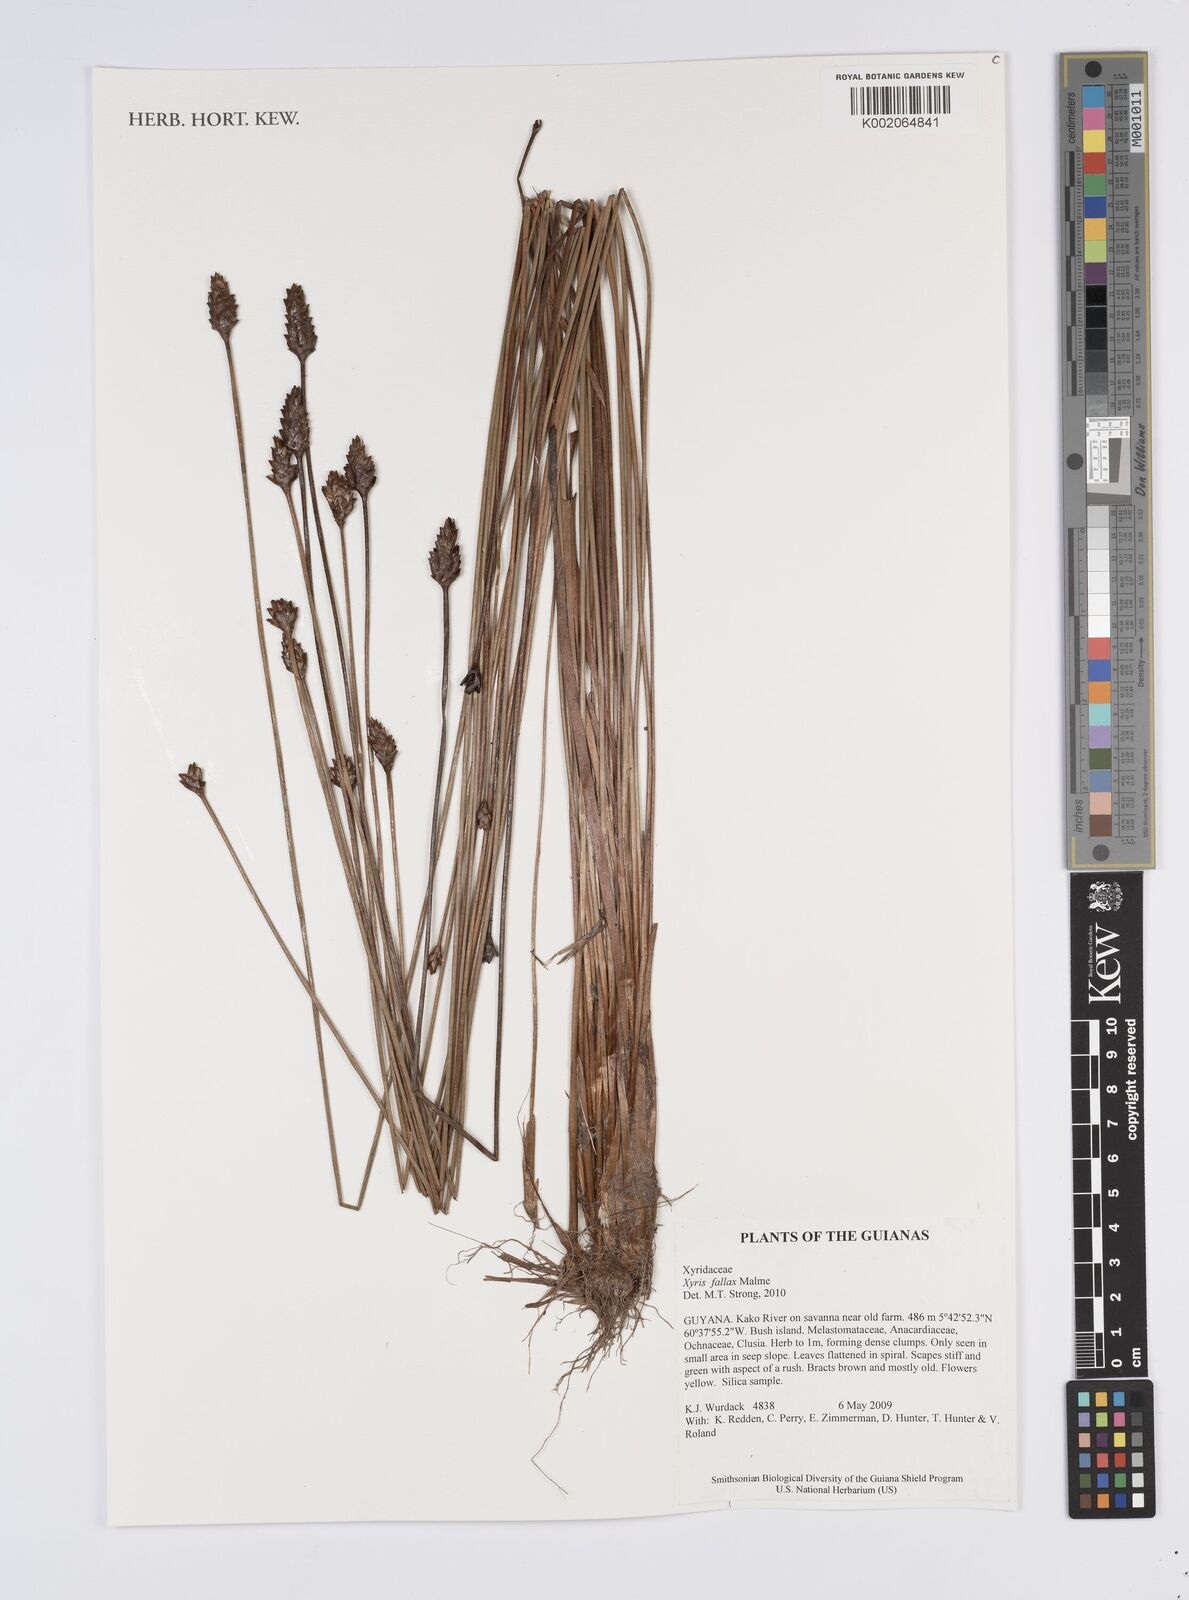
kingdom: Plantae
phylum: Tracheophyta
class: Liliopsida
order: Poales
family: Xyridaceae
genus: Xyris
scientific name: Xyris fallax
